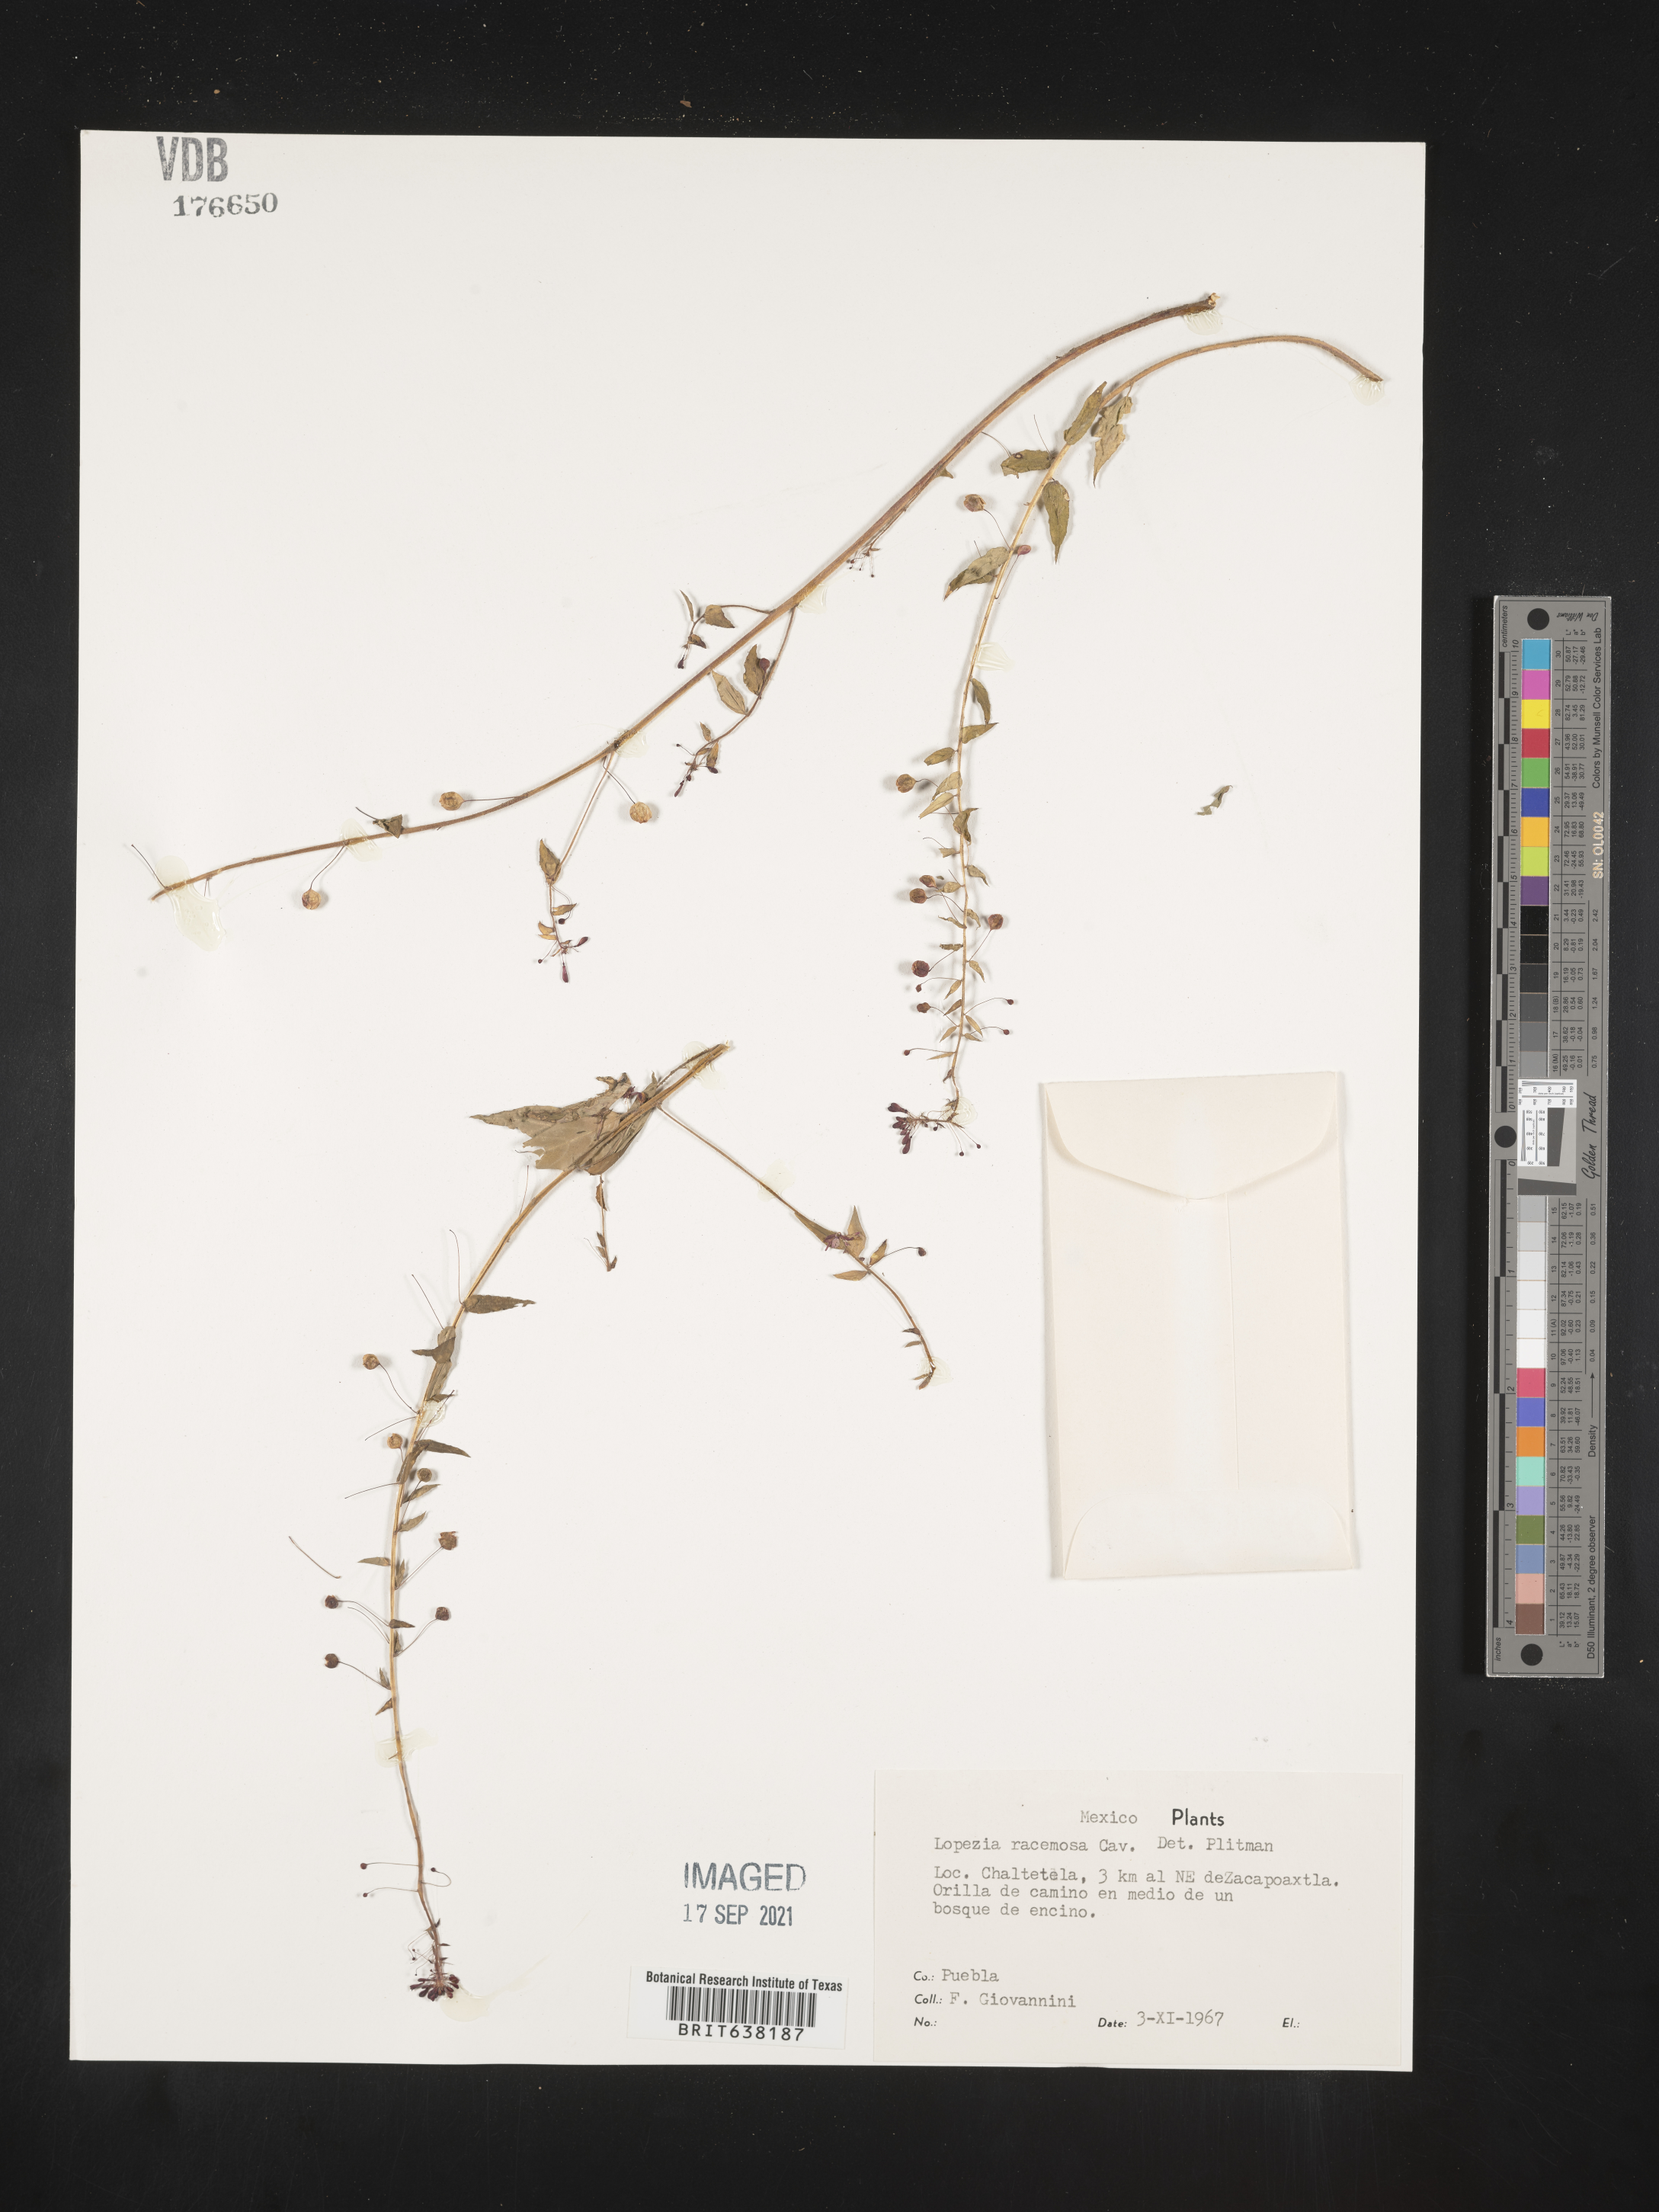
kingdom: Plantae
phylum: Tracheophyta
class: Magnoliopsida
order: Myrtales
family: Onagraceae
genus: Lopezia
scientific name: Lopezia
